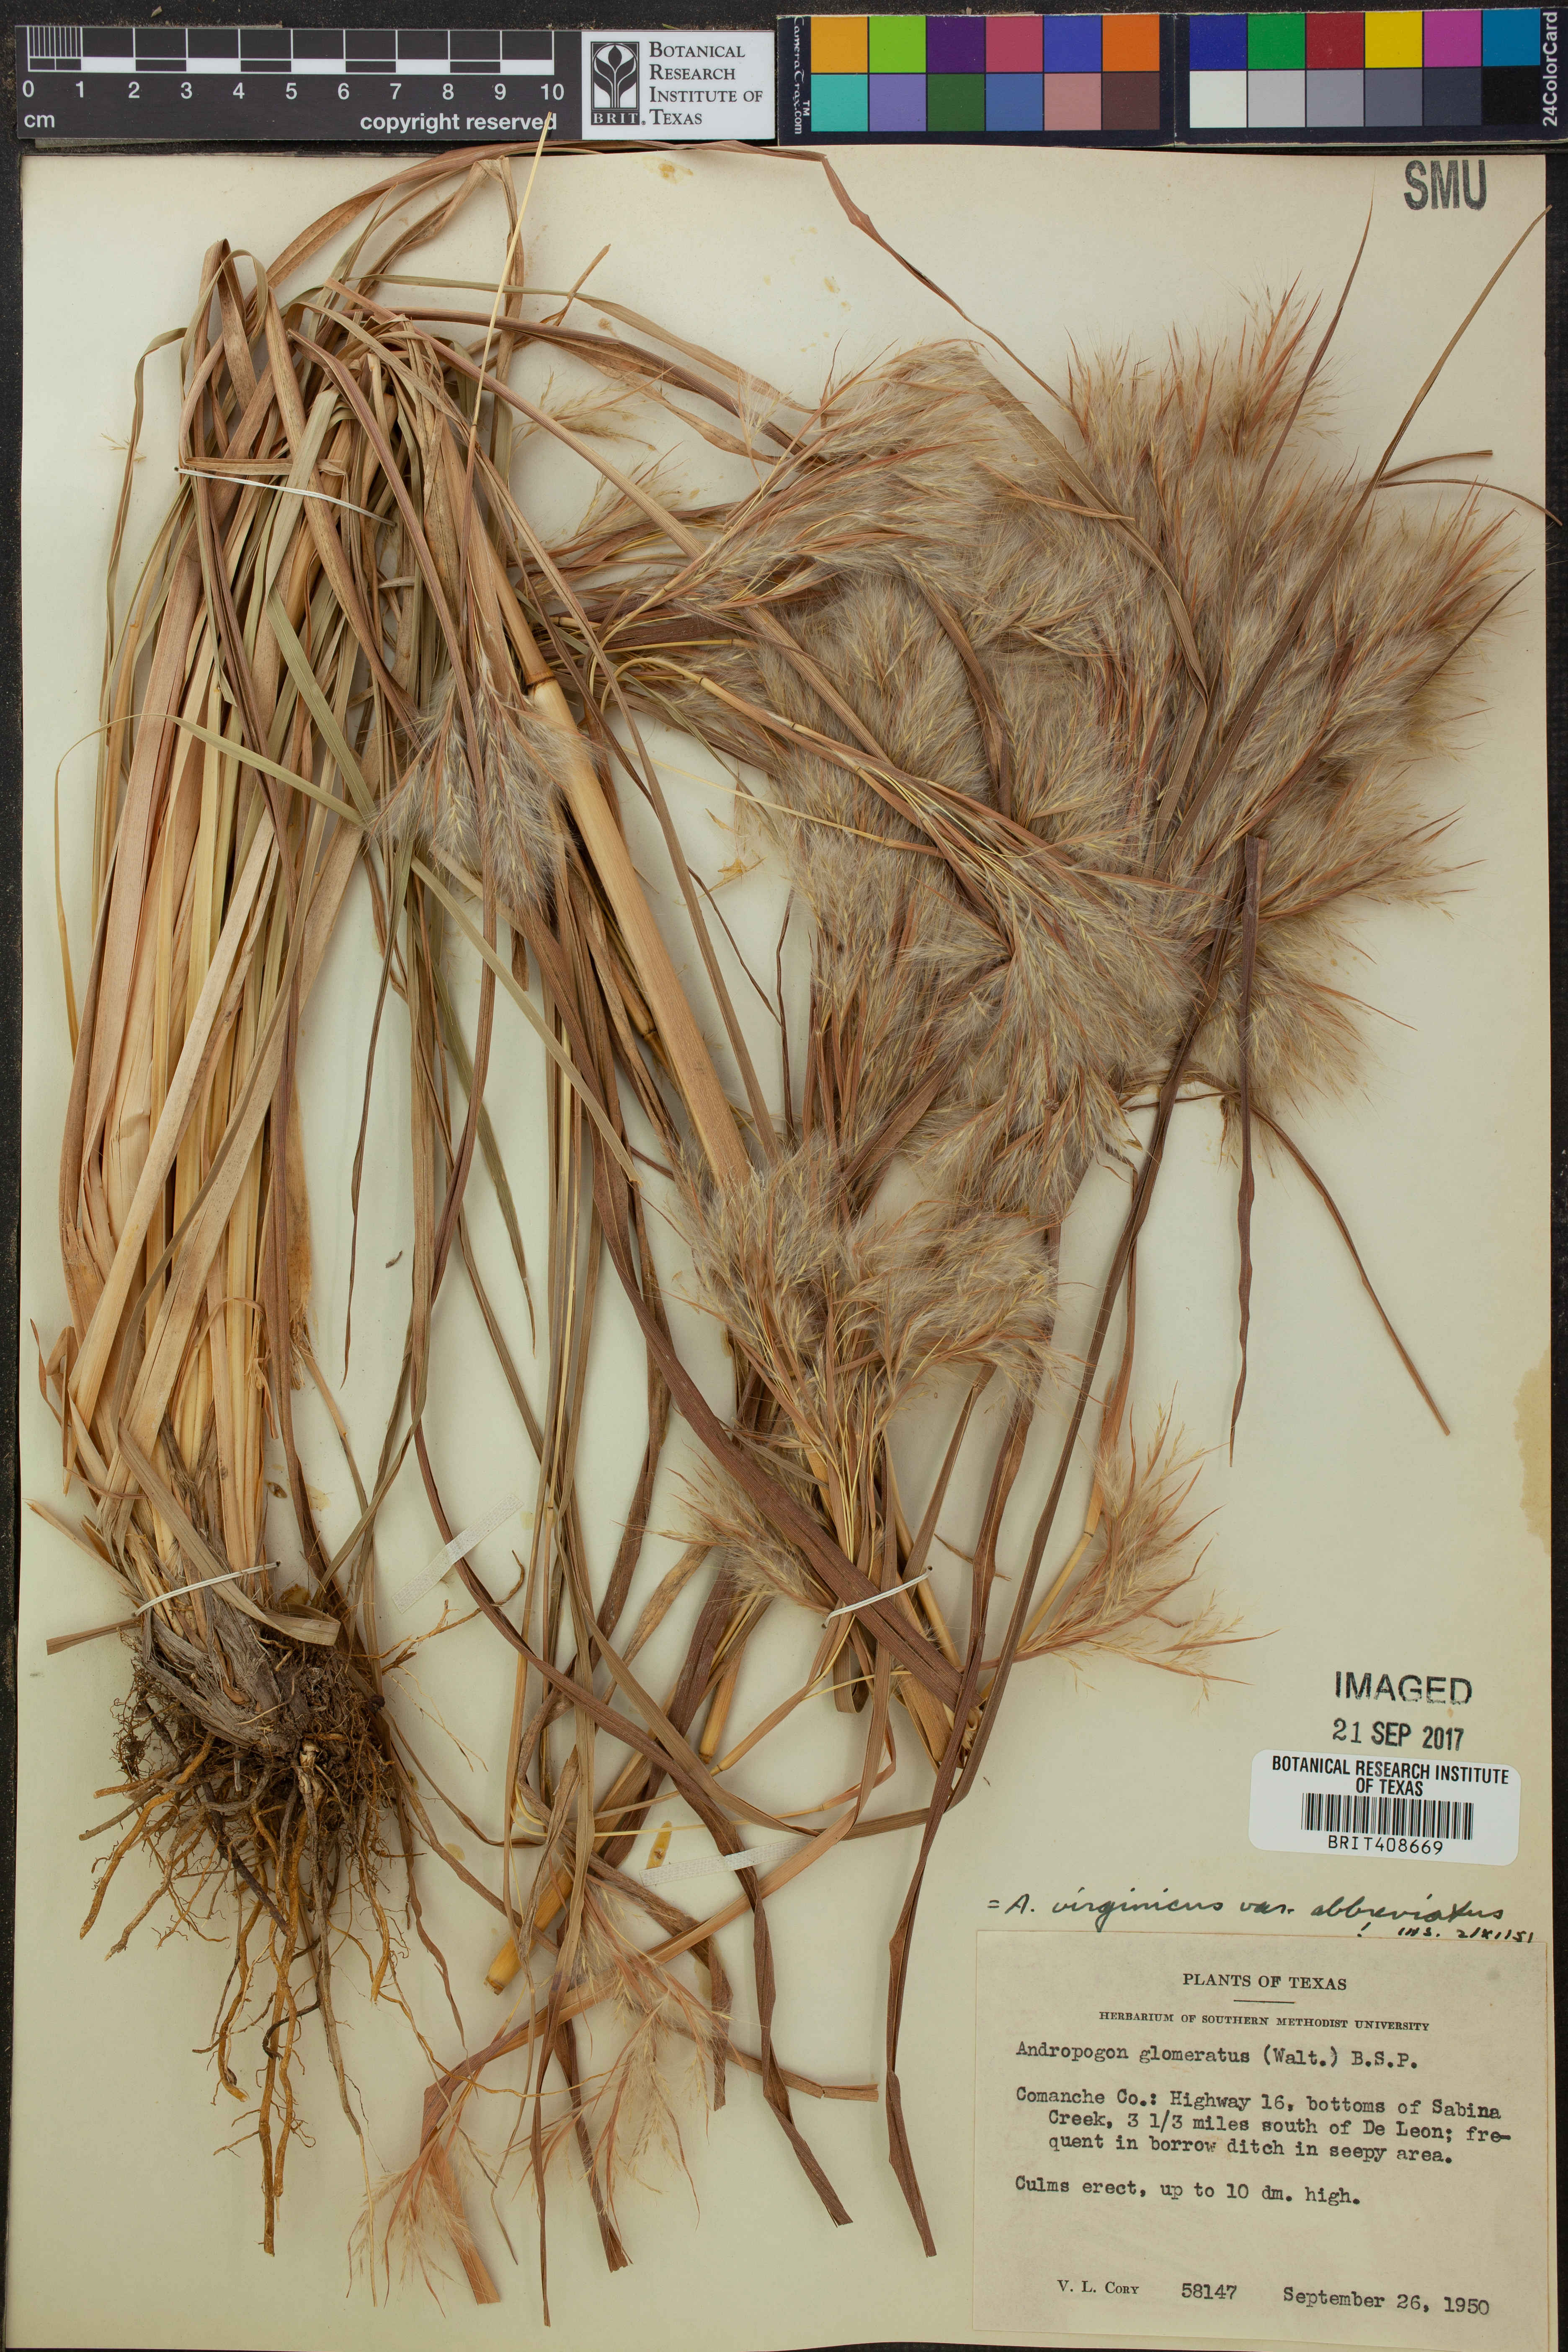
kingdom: Plantae
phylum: Tracheophyta
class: Liliopsida
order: Poales
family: Poaceae
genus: Andropogon
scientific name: Andropogon glomeratus
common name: Bushy beard grass
